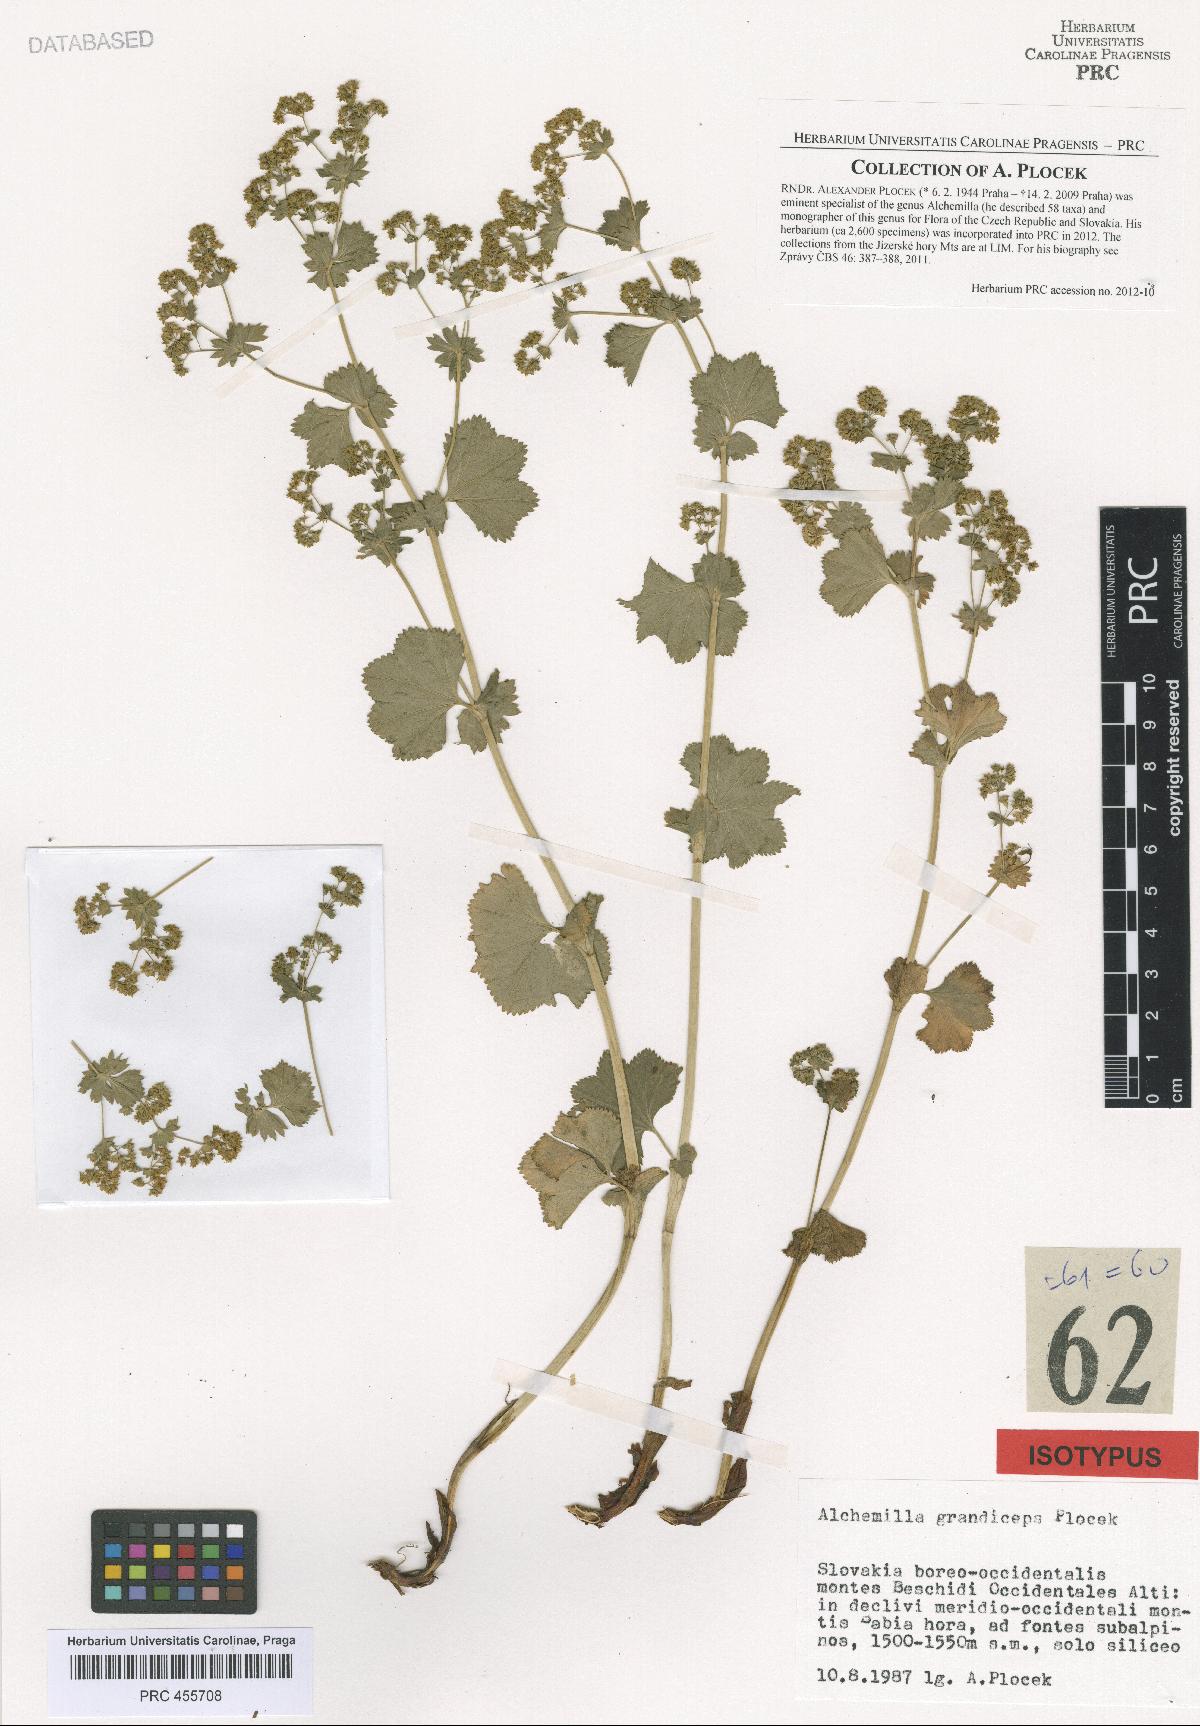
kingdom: Plantae
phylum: Tracheophyta
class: Magnoliopsida
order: Rosales
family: Rosaceae
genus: Alchemilla
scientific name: Alchemilla grandiceps
